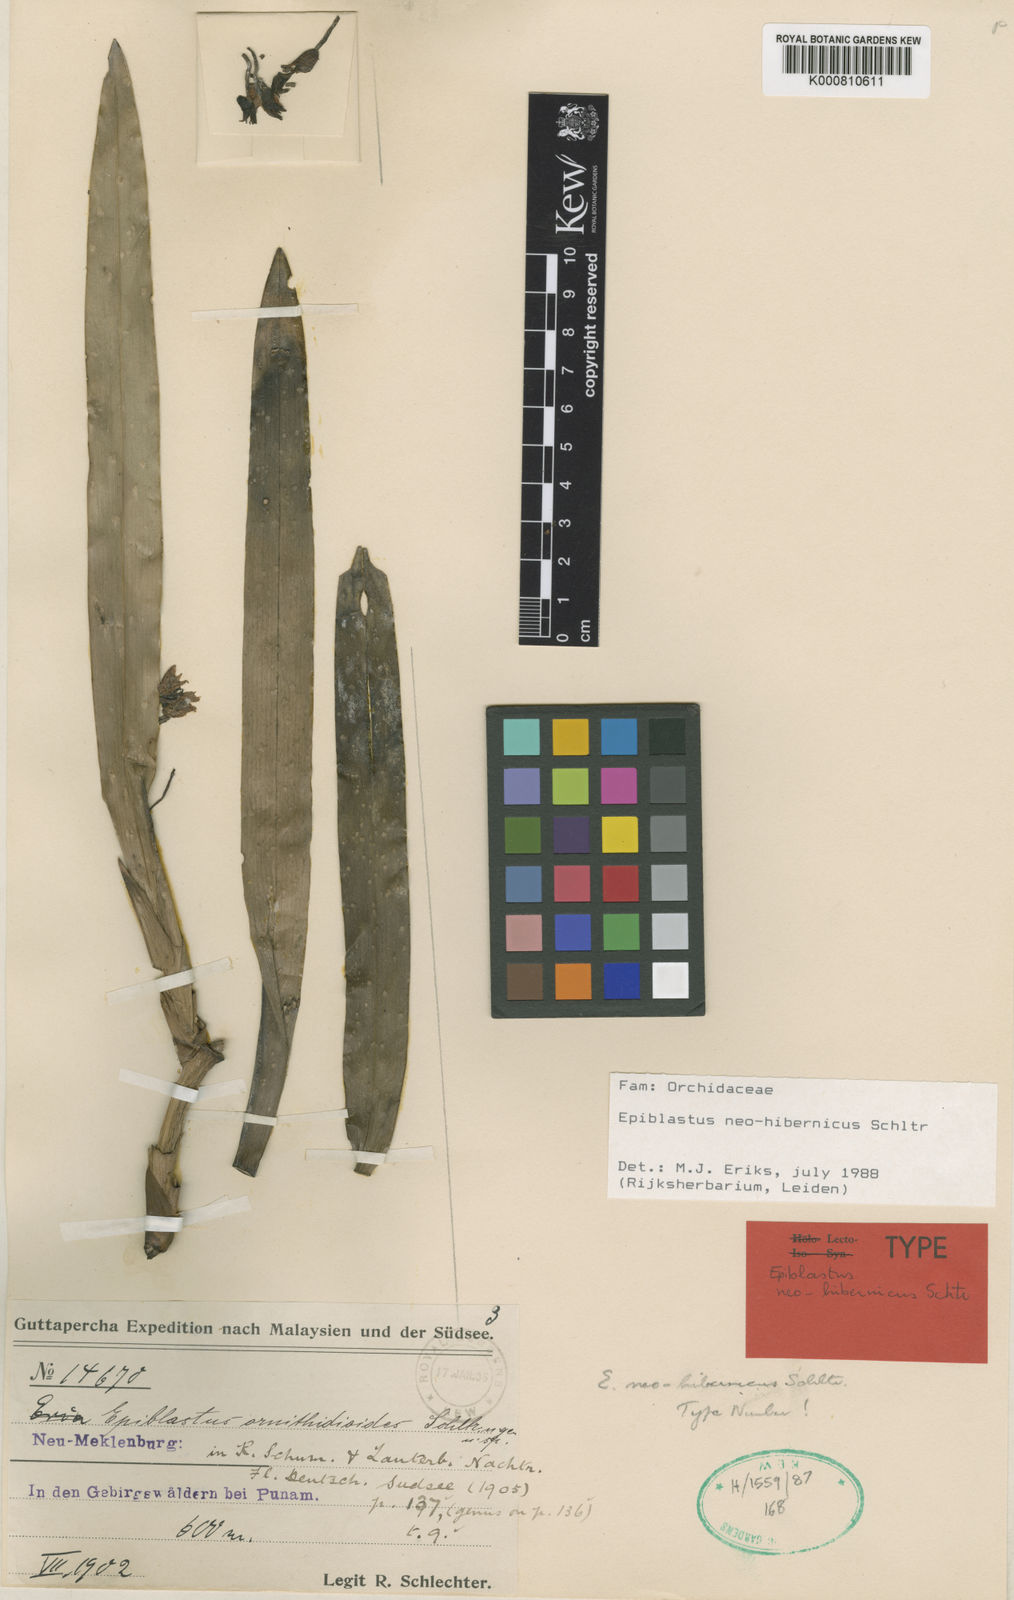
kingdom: Plantae
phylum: Tracheophyta
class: Liliopsida
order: Asparagales
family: Orchidaceae
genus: Epiblastus
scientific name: Epiblastus neohibernicus
